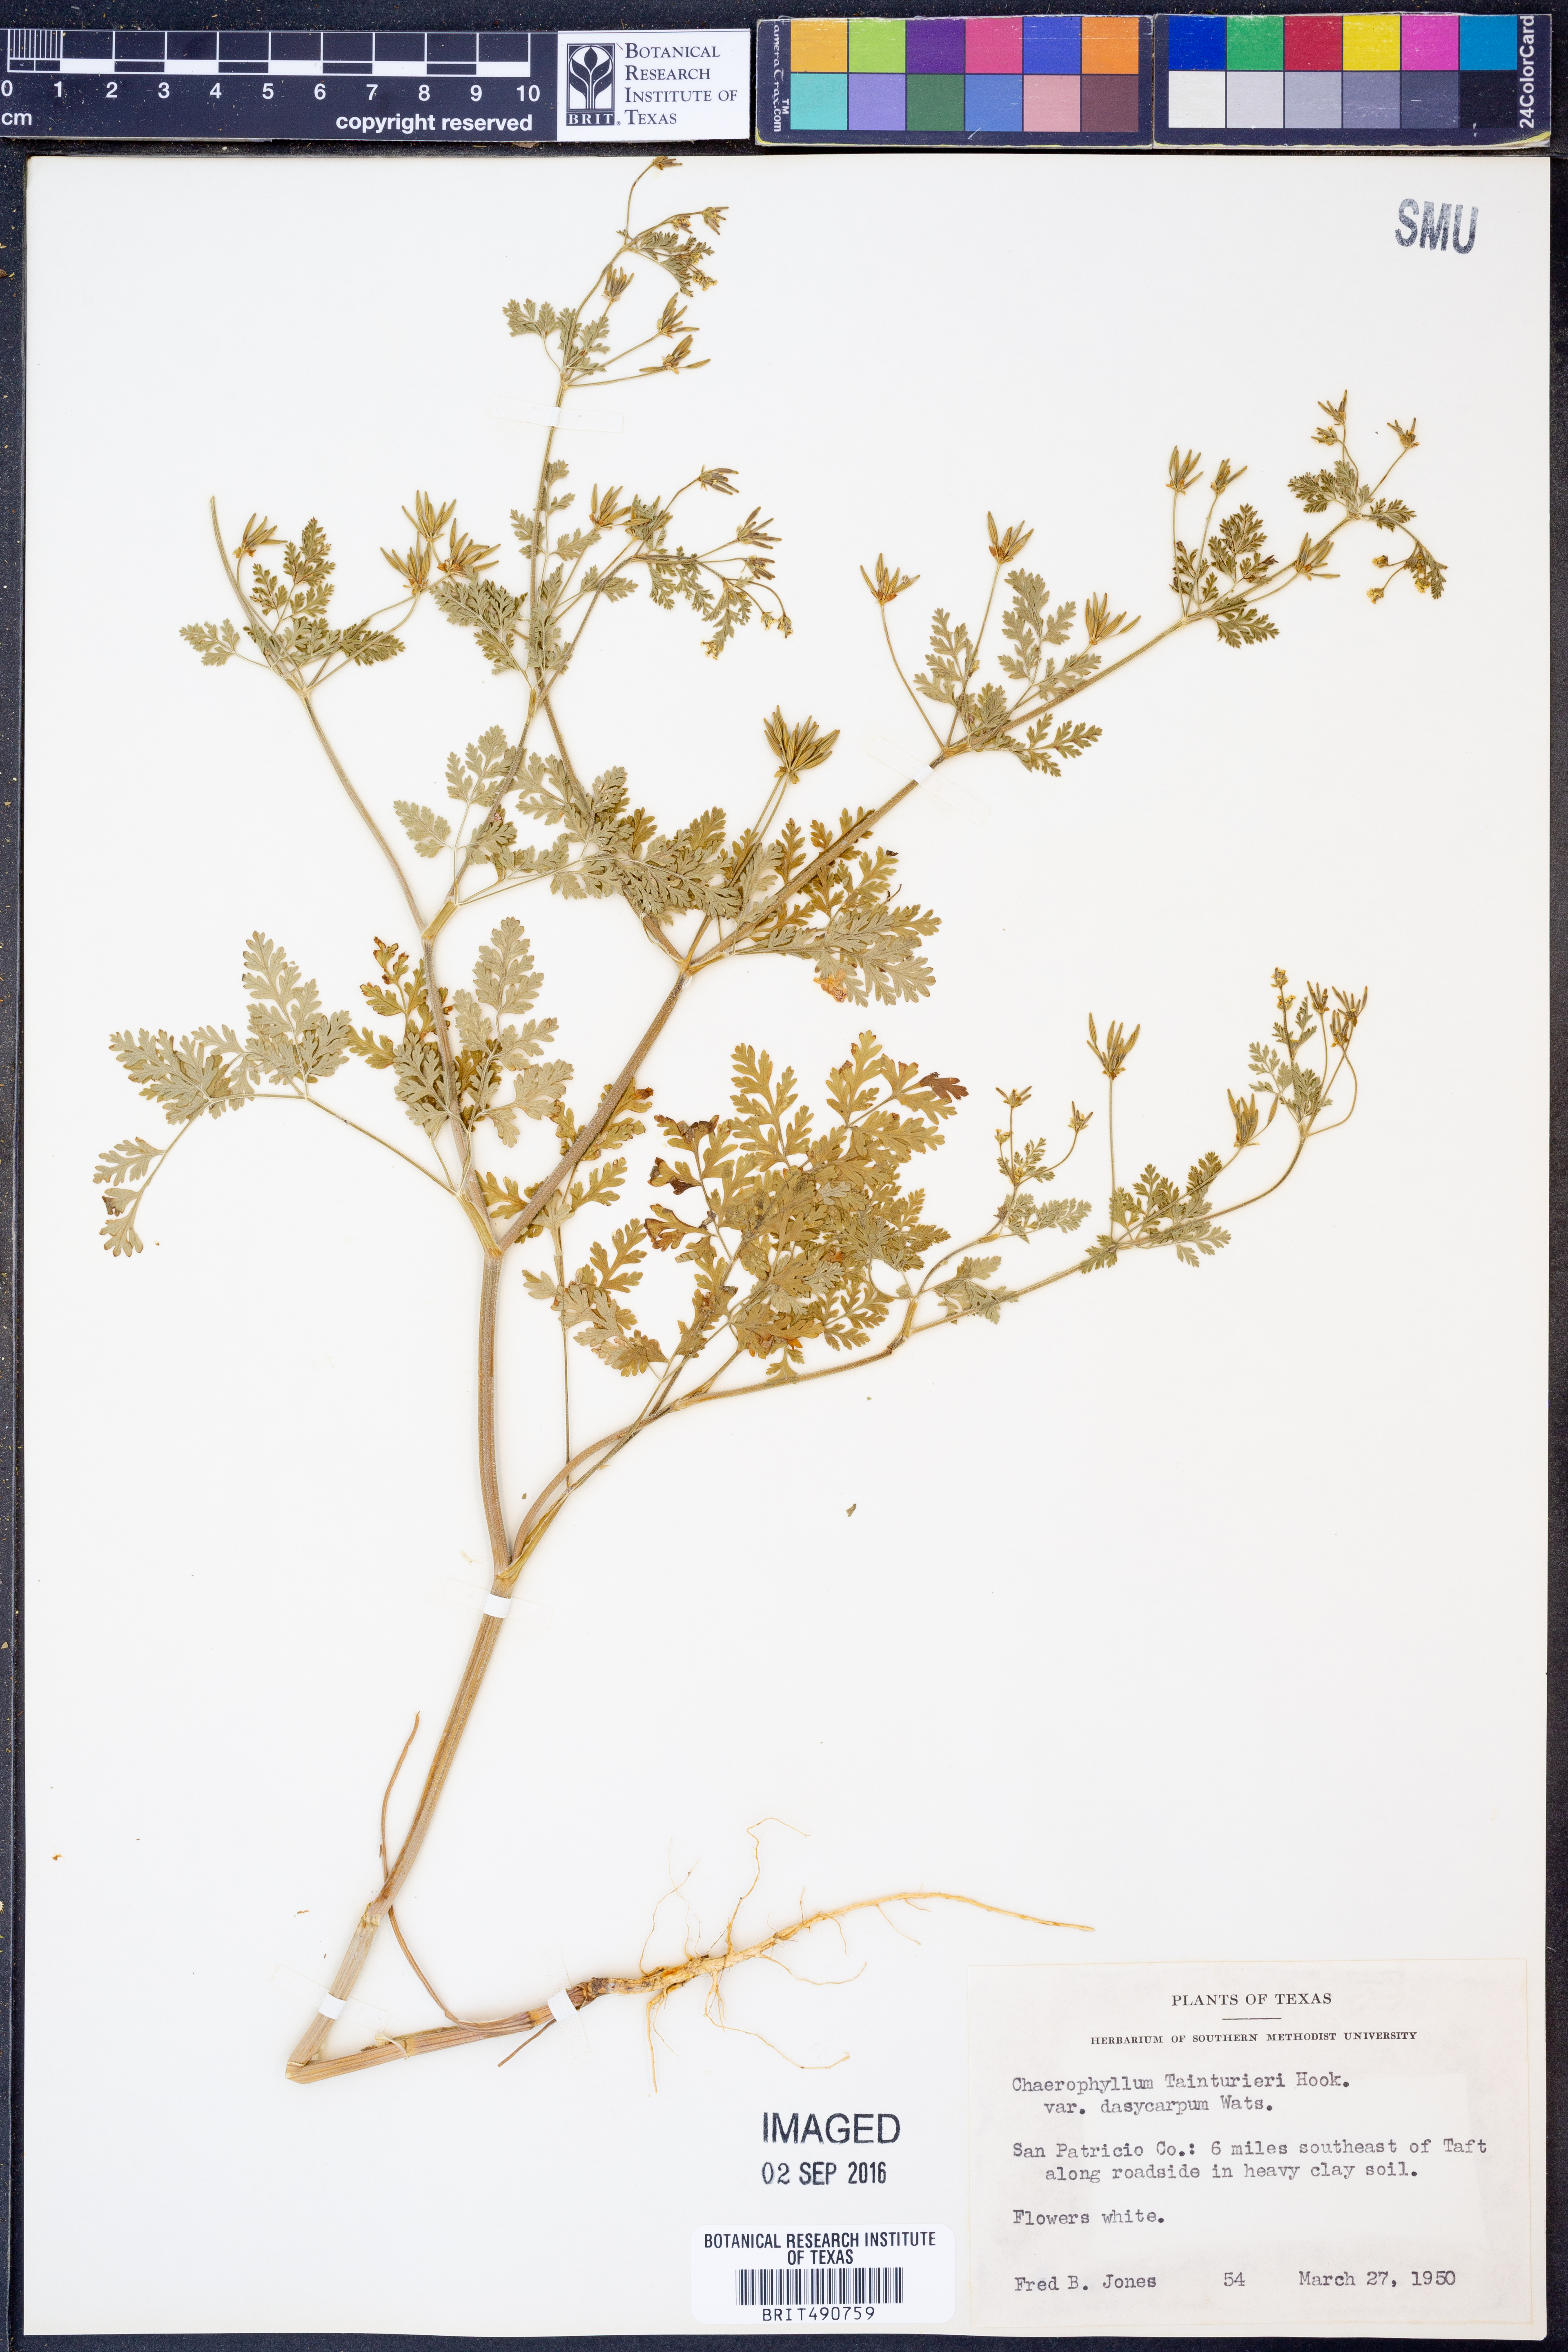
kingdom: Plantae
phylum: Tracheophyta
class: Magnoliopsida
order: Apiales
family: Apiaceae
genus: Chaerophyllum
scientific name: Chaerophyllum dasycarpum
